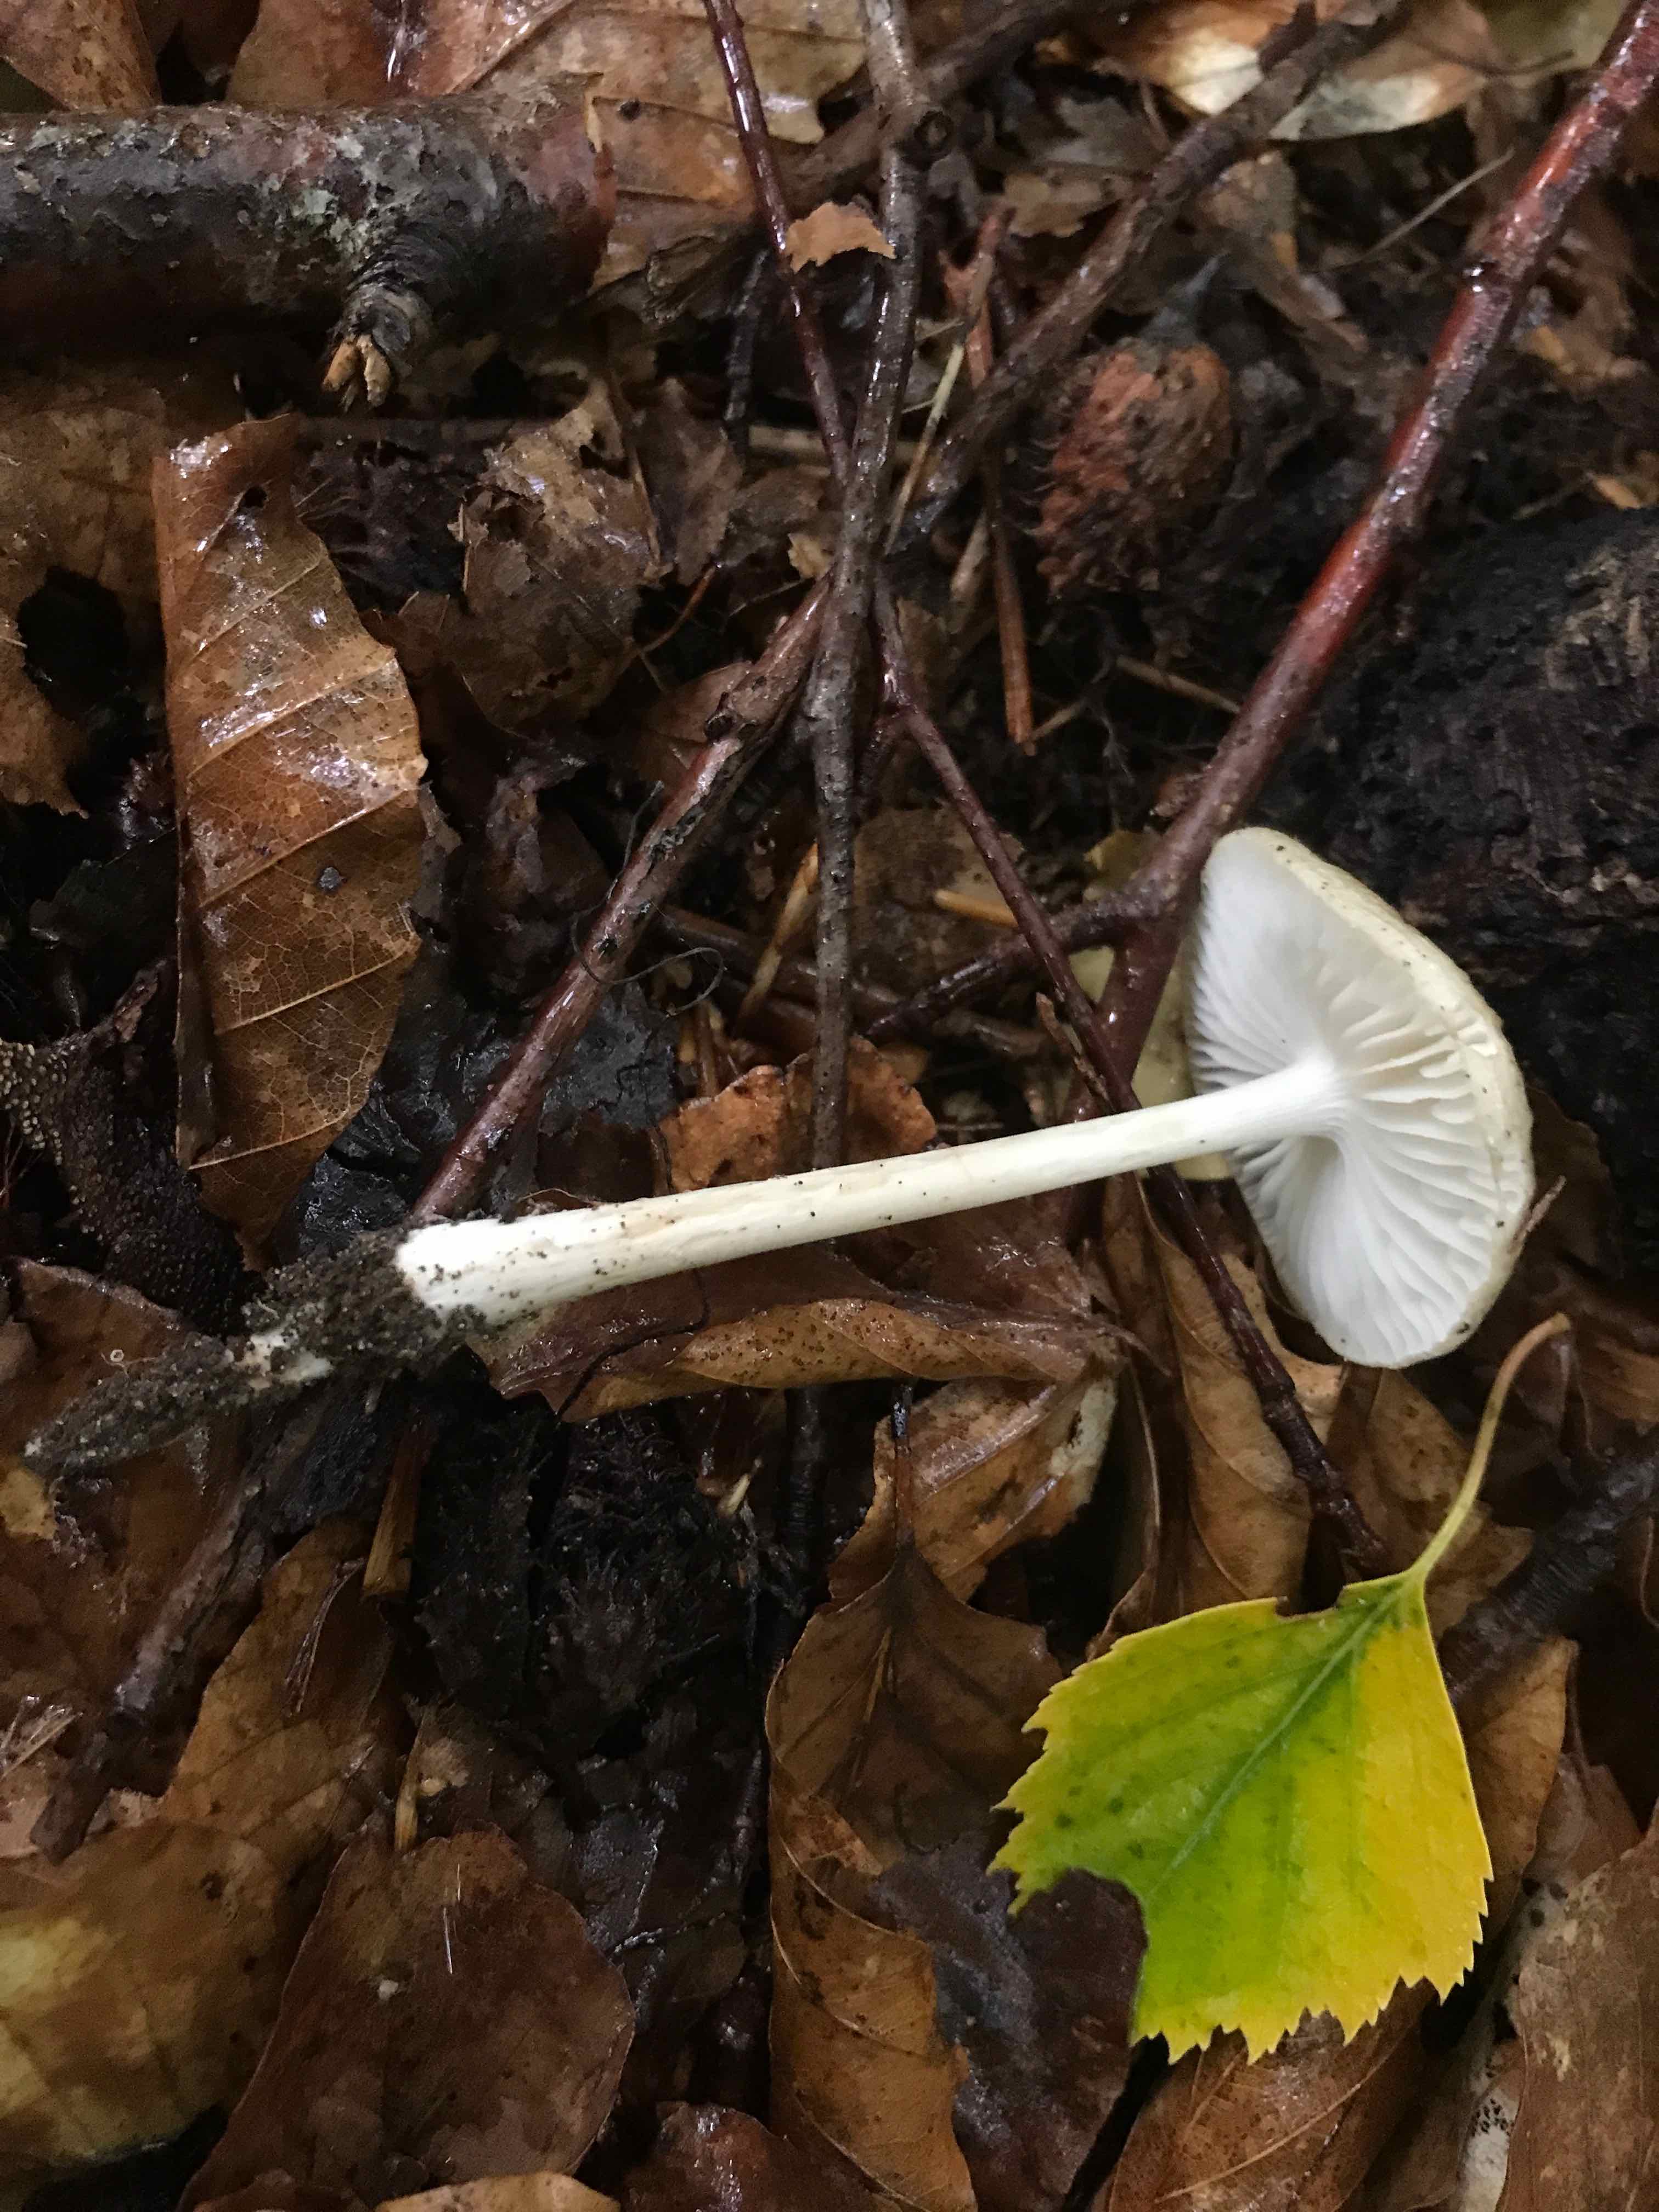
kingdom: Fungi
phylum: Basidiomycota
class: Agaricomycetes
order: Agaricales
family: Physalacriaceae
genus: Hymenopellis
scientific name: Hymenopellis radicata
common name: almindelig pælerodshat
